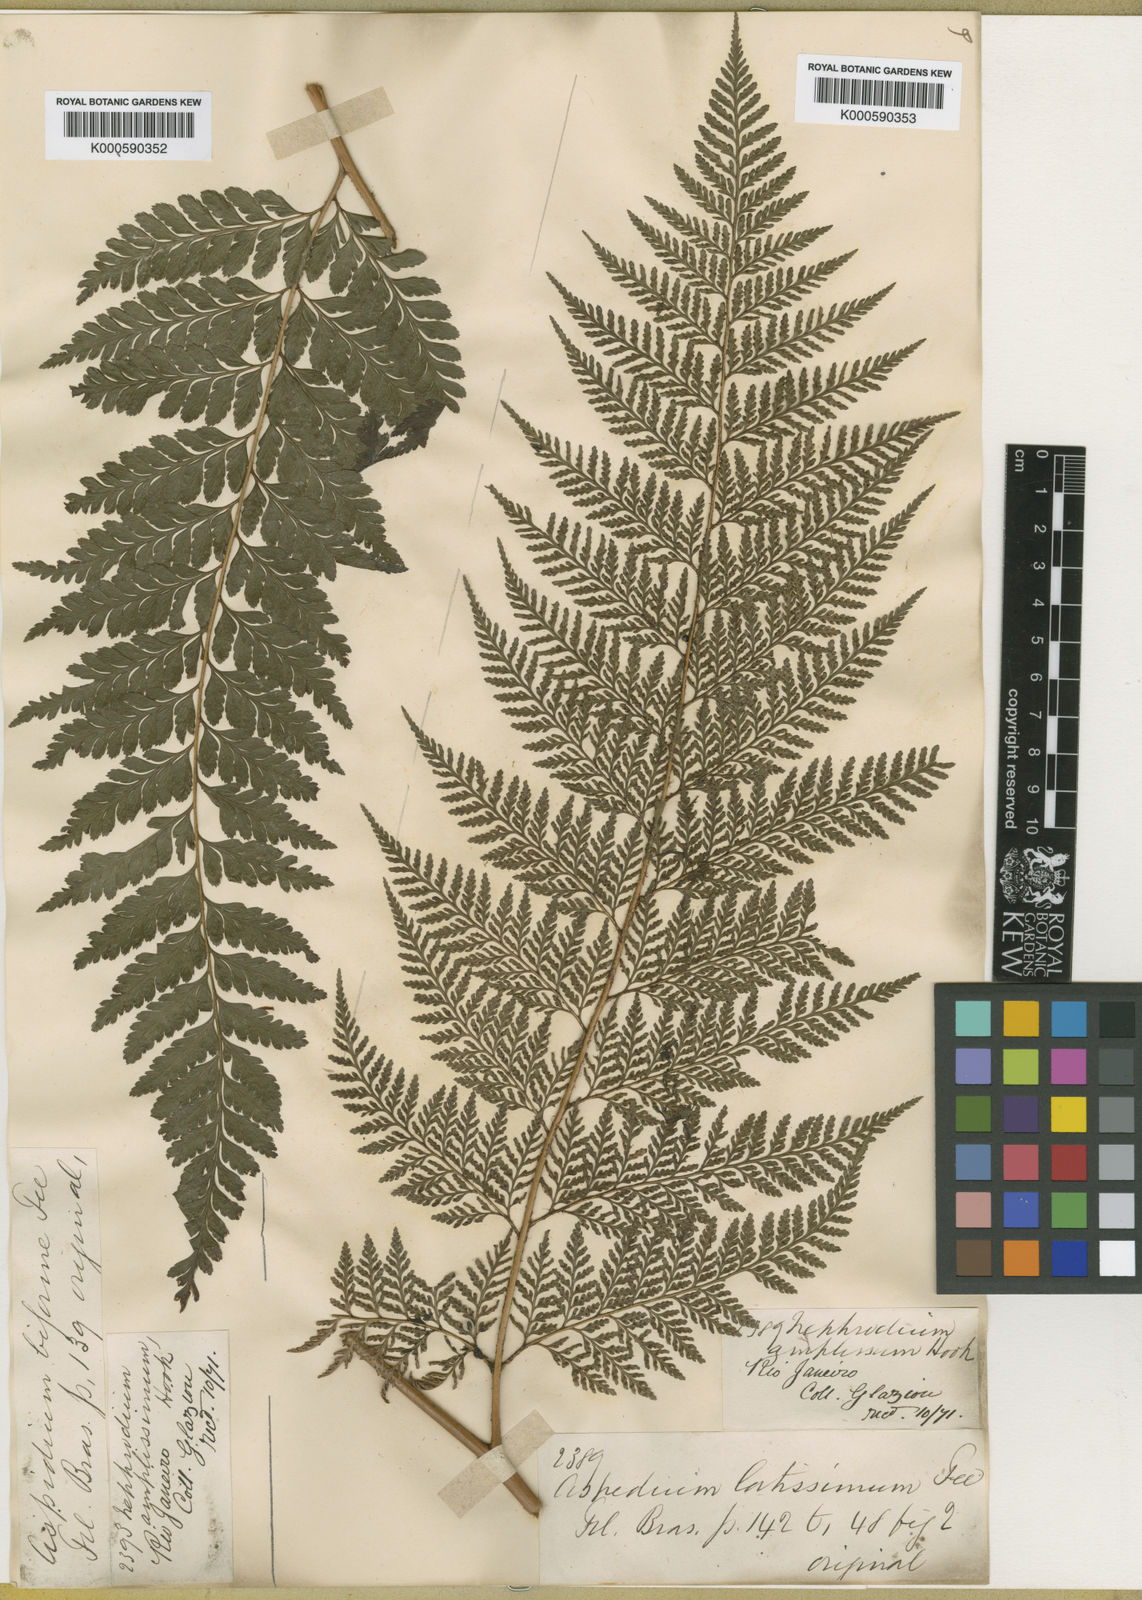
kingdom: Plantae
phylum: Tracheophyta
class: Polypodiopsida
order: Polypodiales
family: Dryopteridaceae
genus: Lastreopsis
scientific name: Lastreopsis amplissima
